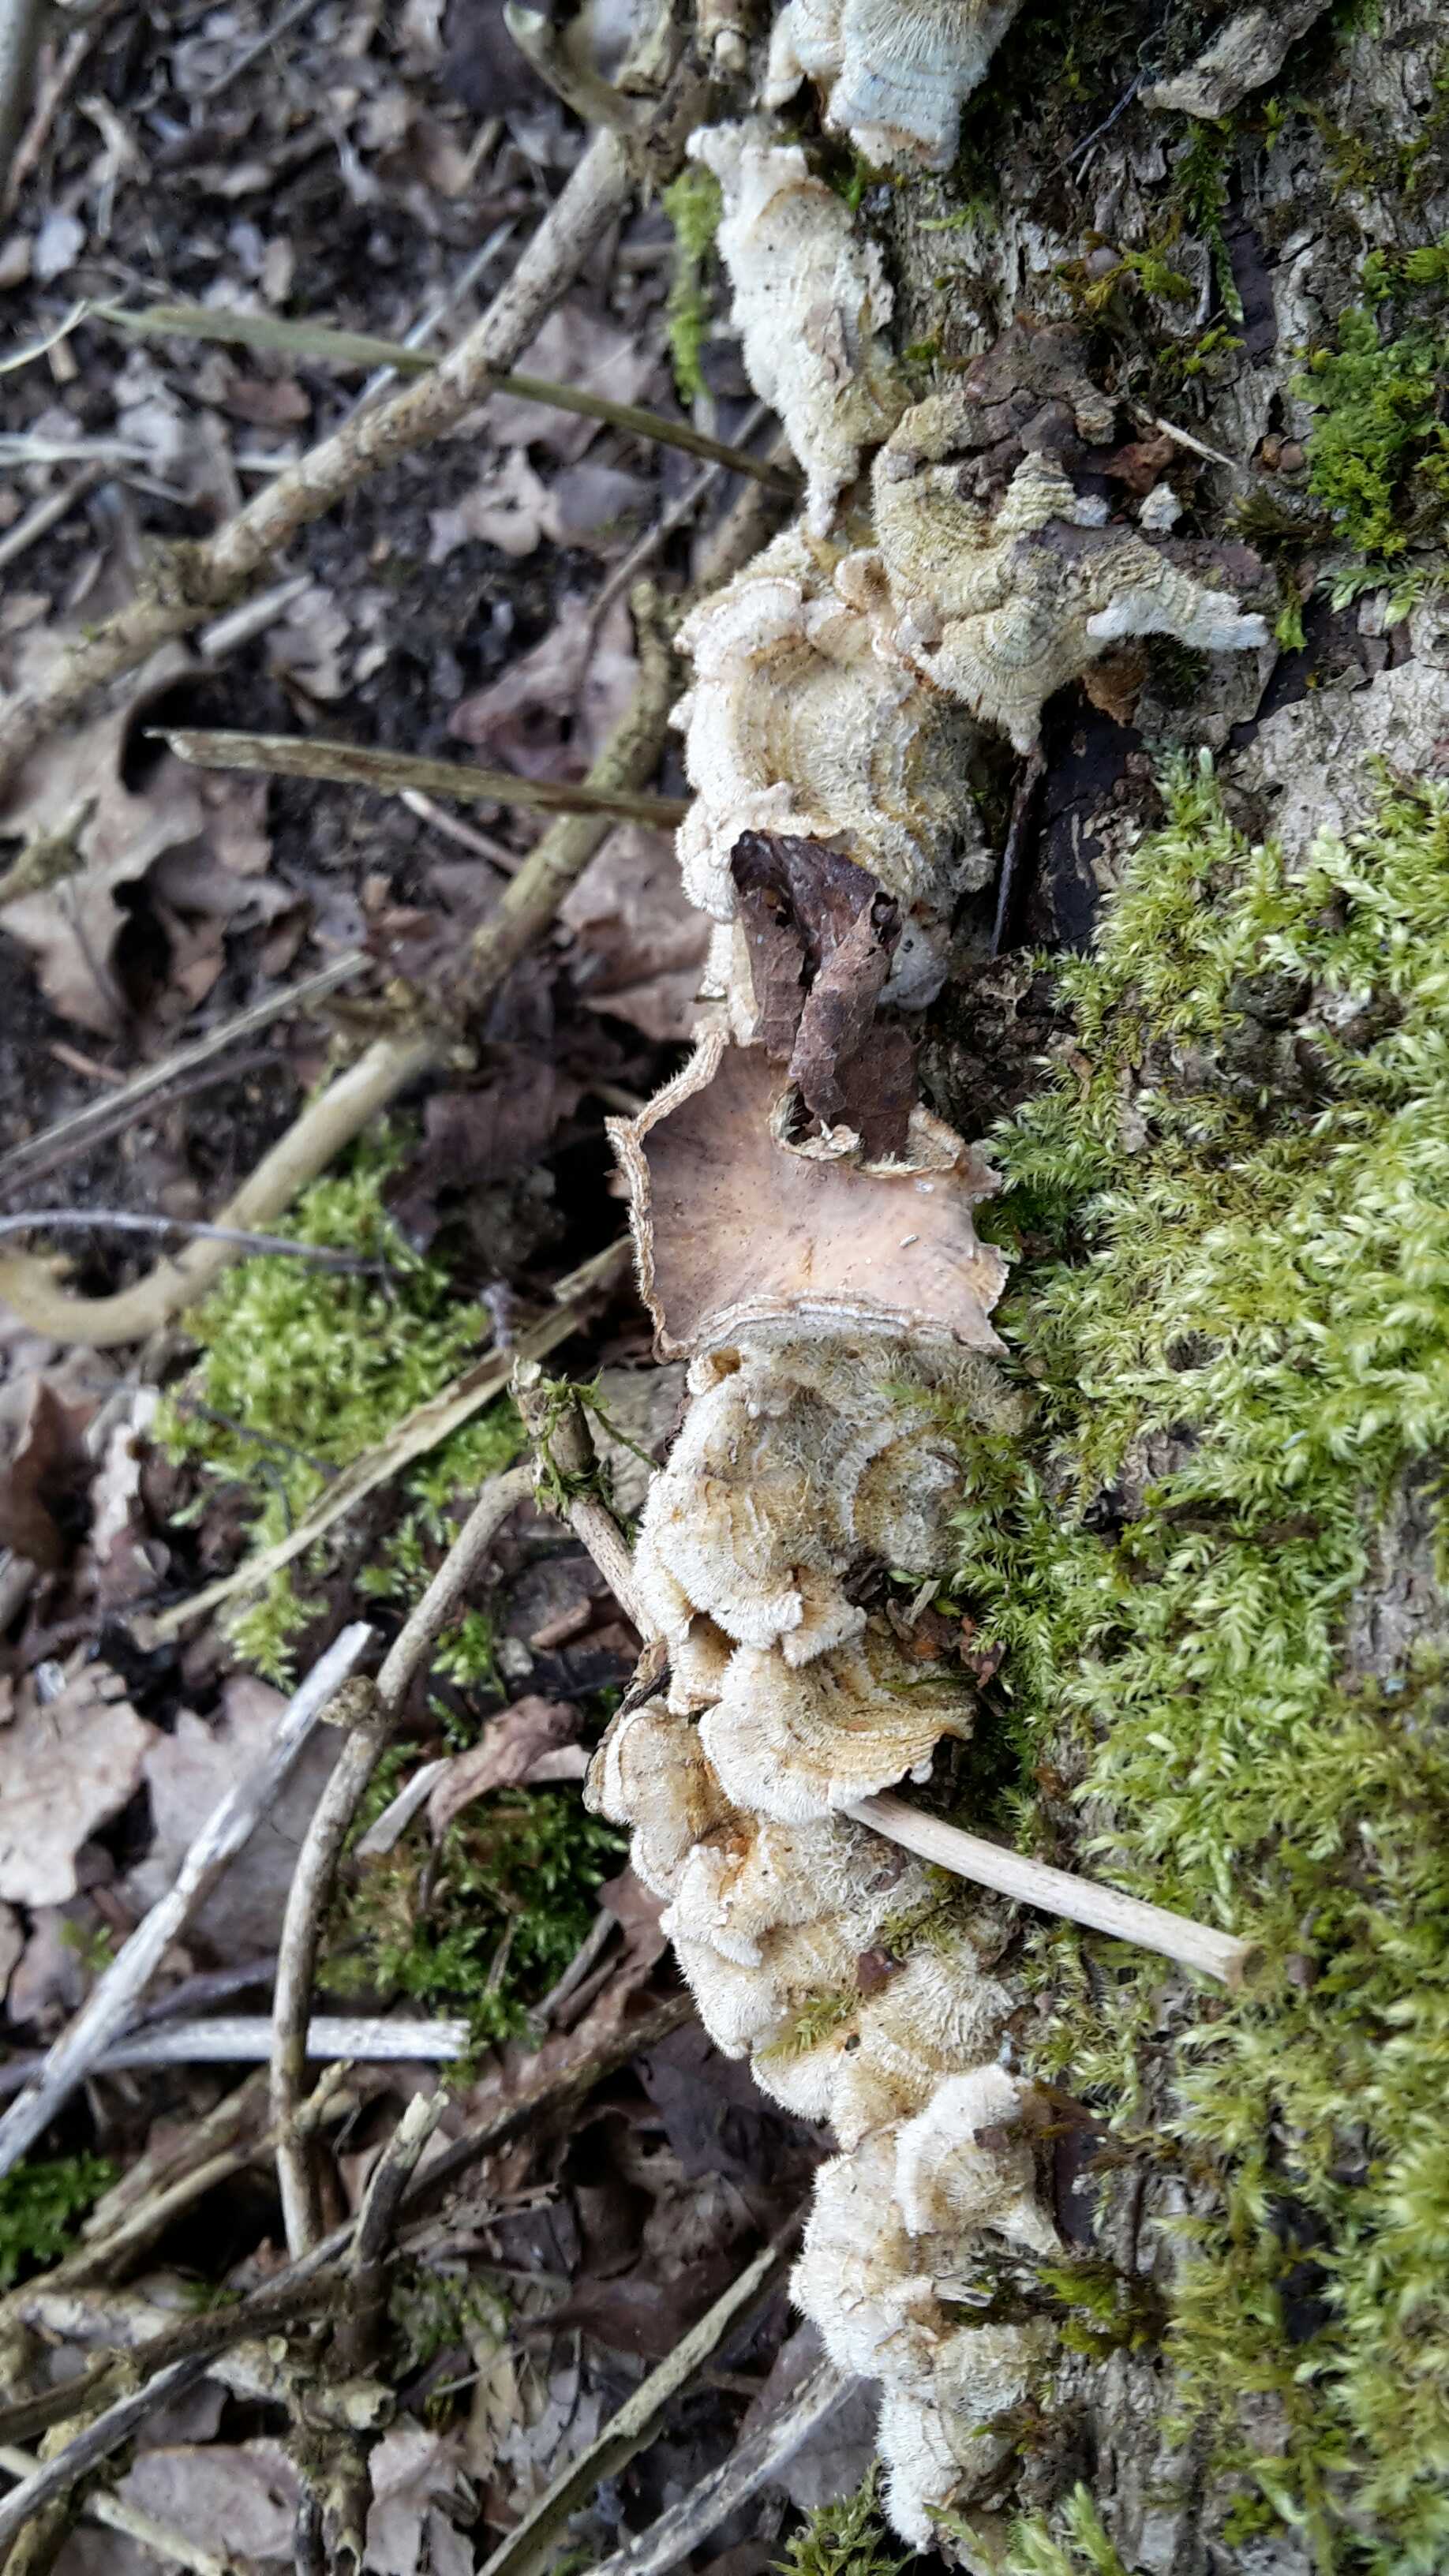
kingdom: Fungi
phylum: Basidiomycota
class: Agaricomycetes
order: Russulales
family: Stereaceae
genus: Stereum
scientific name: Stereum hirsutum
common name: håret lædersvamp
